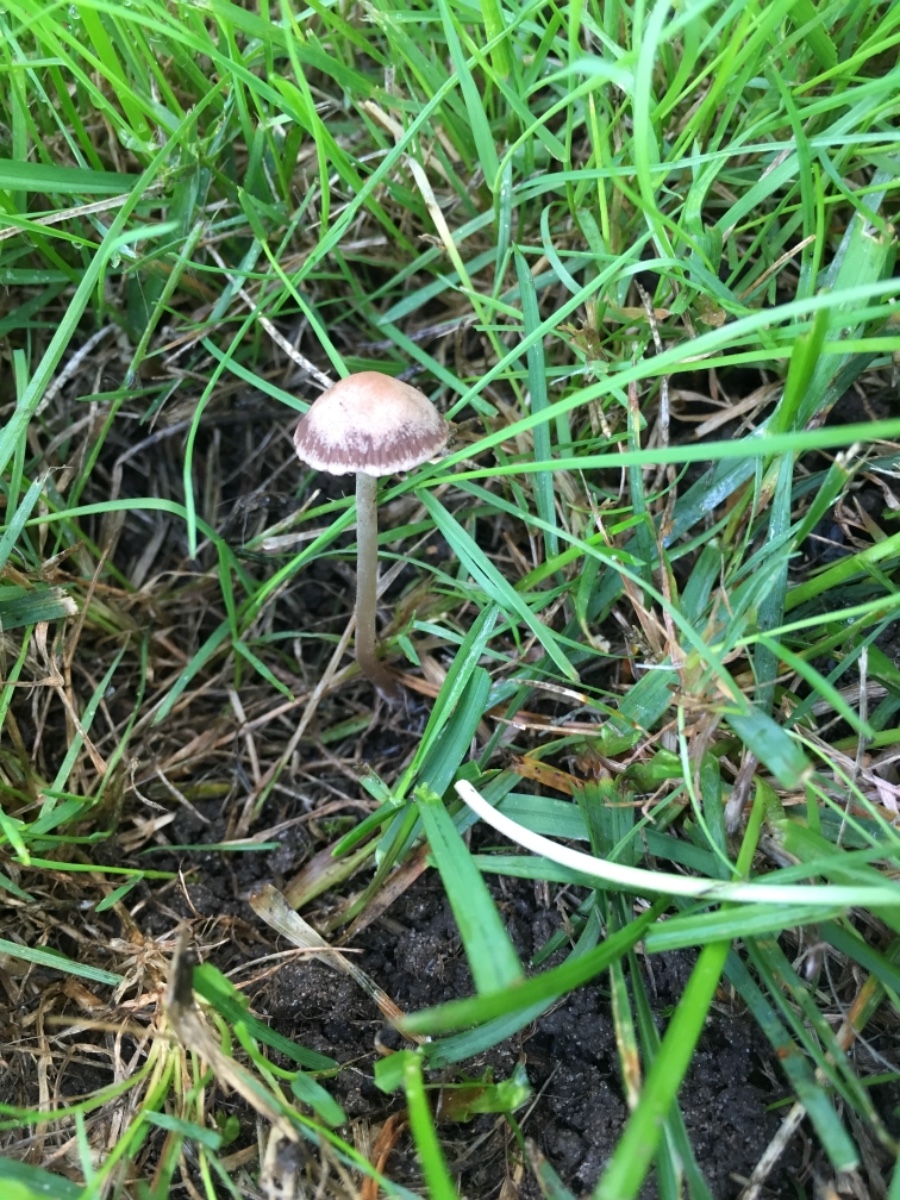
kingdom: Fungi
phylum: Basidiomycota
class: Agaricomycetes
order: Agaricales
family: Bolbitiaceae
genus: Panaeolina
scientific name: Panaeolina foenisecii
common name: høslætsvamp
